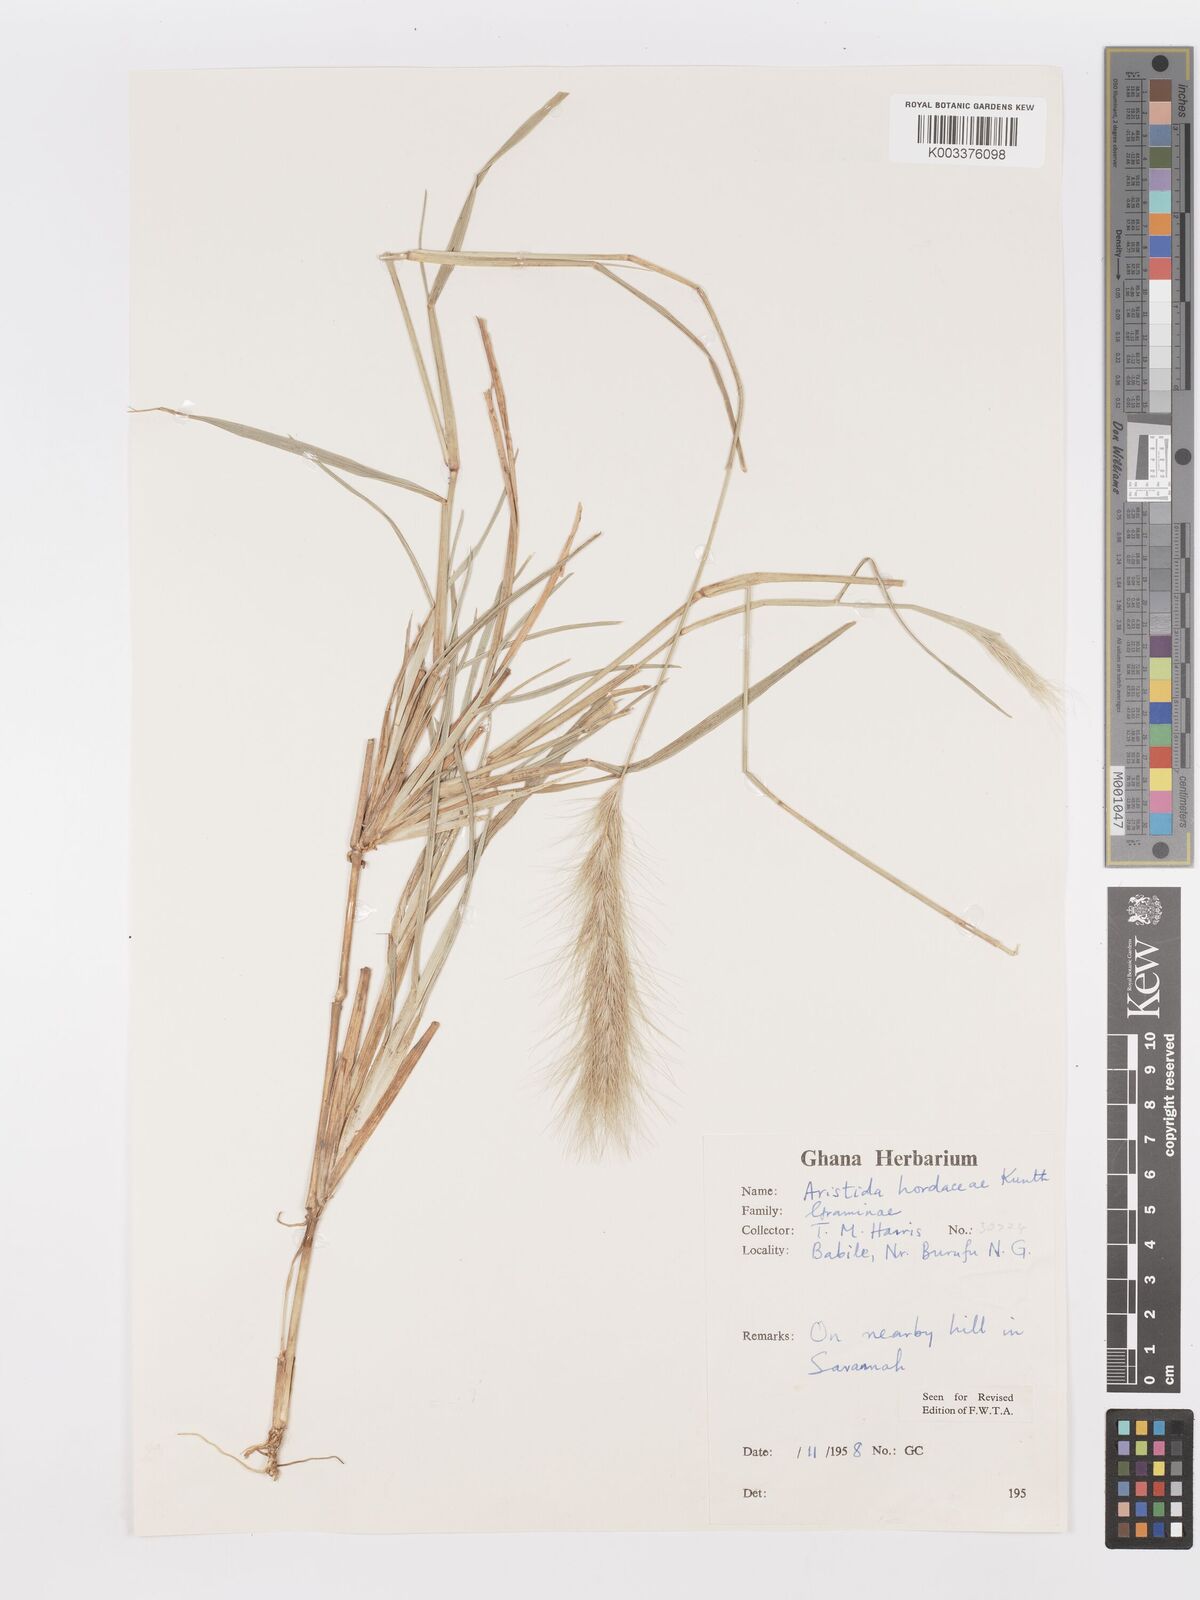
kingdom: Plantae
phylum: Tracheophyta
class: Liliopsida
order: Poales
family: Poaceae
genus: Aristida
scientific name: Aristida hordeacea
